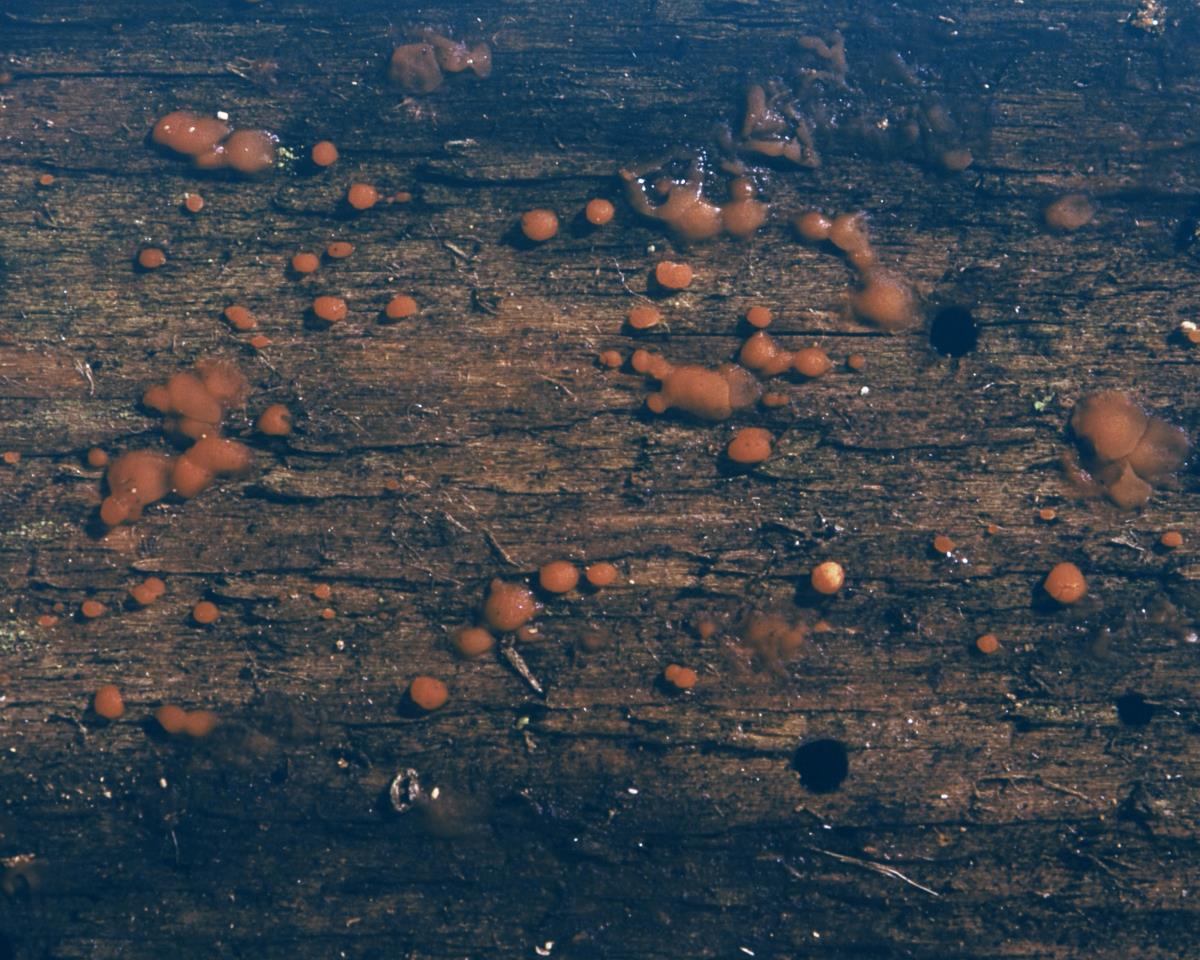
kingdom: Fungi
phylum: Basidiomycota
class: Dacrymycetes
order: Dacrymycetales
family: Dacrymycetaceae
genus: Dacrymyces
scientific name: Dacrymyces stillatus
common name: Common jelly spot
